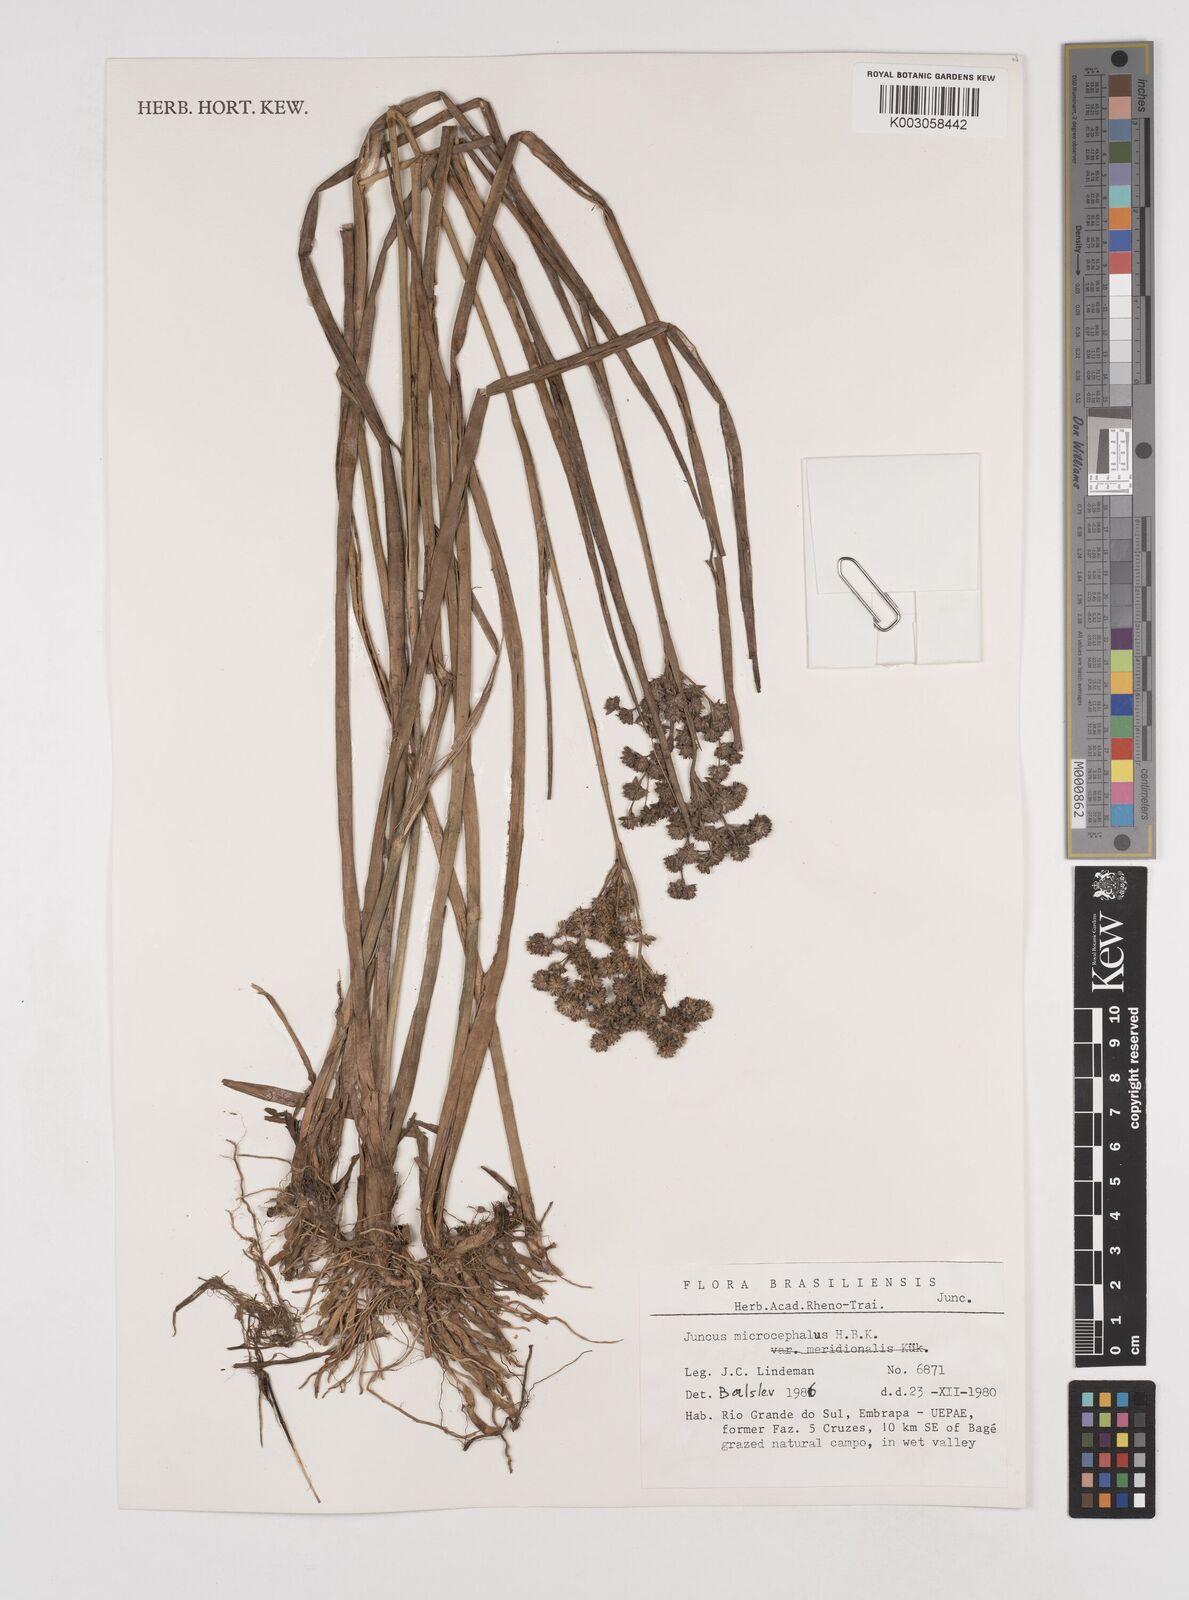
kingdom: Plantae
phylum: Tracheophyta
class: Liliopsida
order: Poales
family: Juncaceae
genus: Juncus
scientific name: Juncus microcephalus
